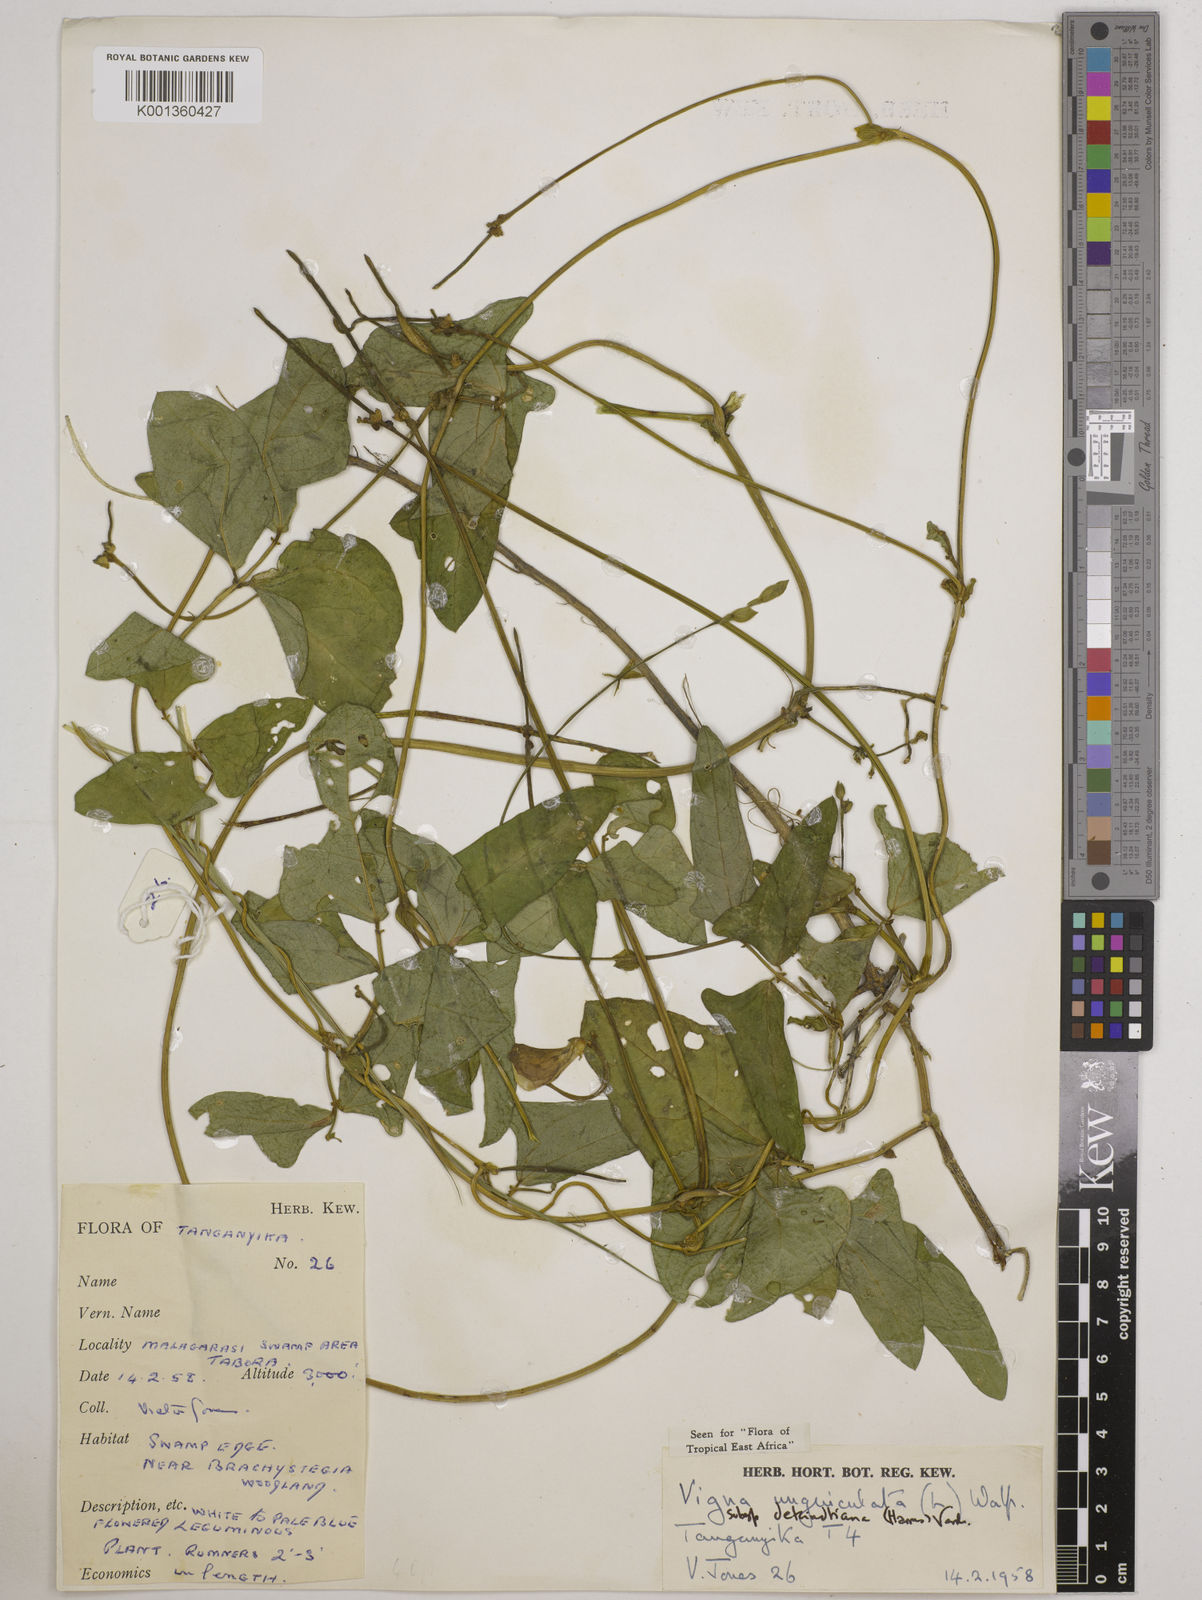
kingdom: Plantae
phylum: Tracheophyta
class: Magnoliopsida
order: Fabales
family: Fabaceae
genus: Vigna
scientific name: Vigna
